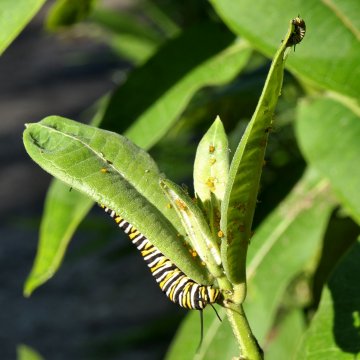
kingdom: Animalia
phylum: Arthropoda
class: Insecta
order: Lepidoptera
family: Nymphalidae
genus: Danaus
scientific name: Danaus plexippus
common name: Monarch
